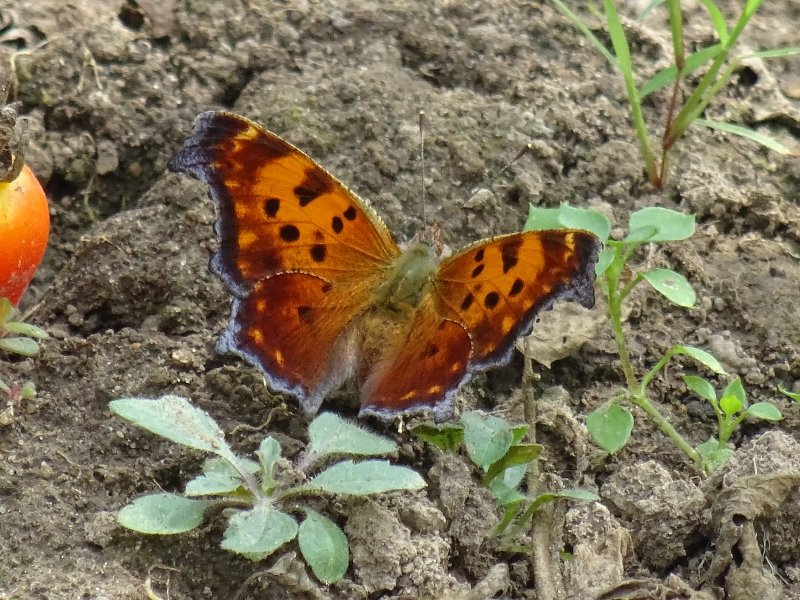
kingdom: Animalia
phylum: Arthropoda
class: Insecta
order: Lepidoptera
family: Nymphalidae
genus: Polygonia
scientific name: Polygonia comma
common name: Eastern Comma
